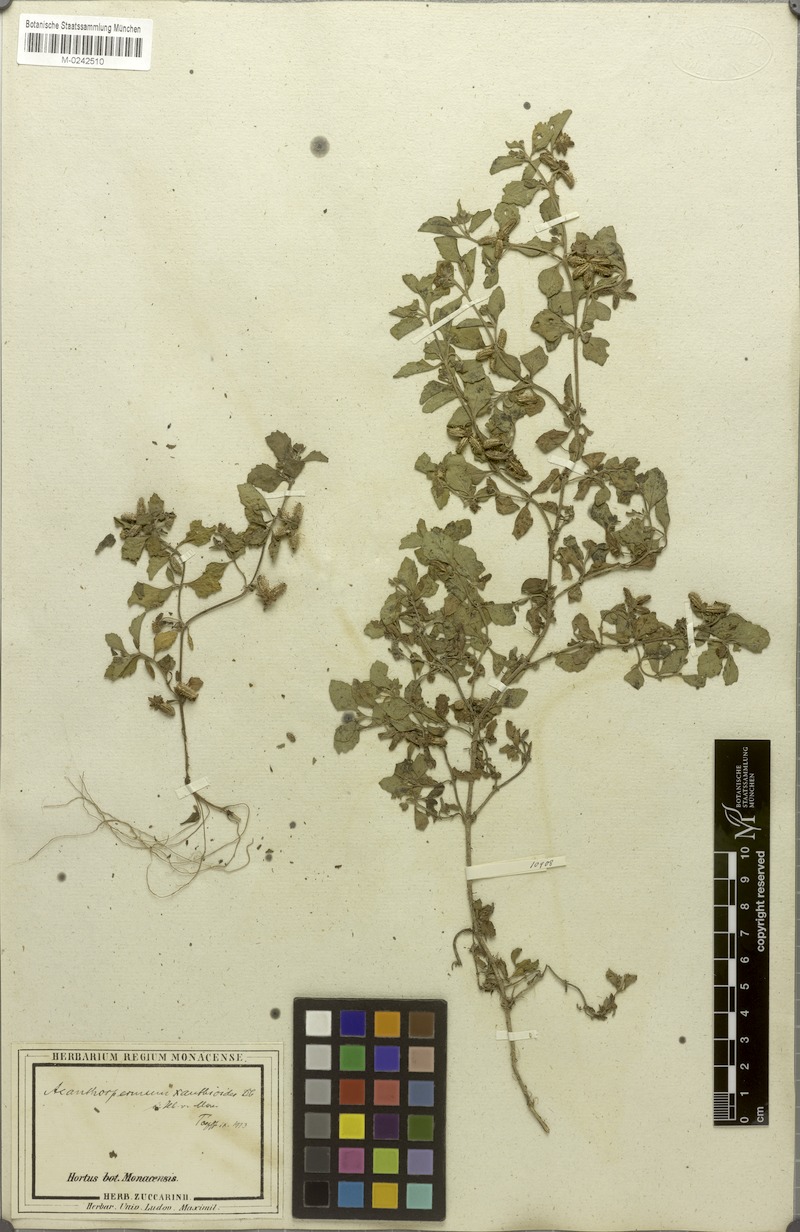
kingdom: Plantae
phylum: Tracheophyta
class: Magnoliopsida
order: Asterales
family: Asteraceae
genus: Acanthospermum
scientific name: Acanthospermum australe
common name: Paraguayan starbur
